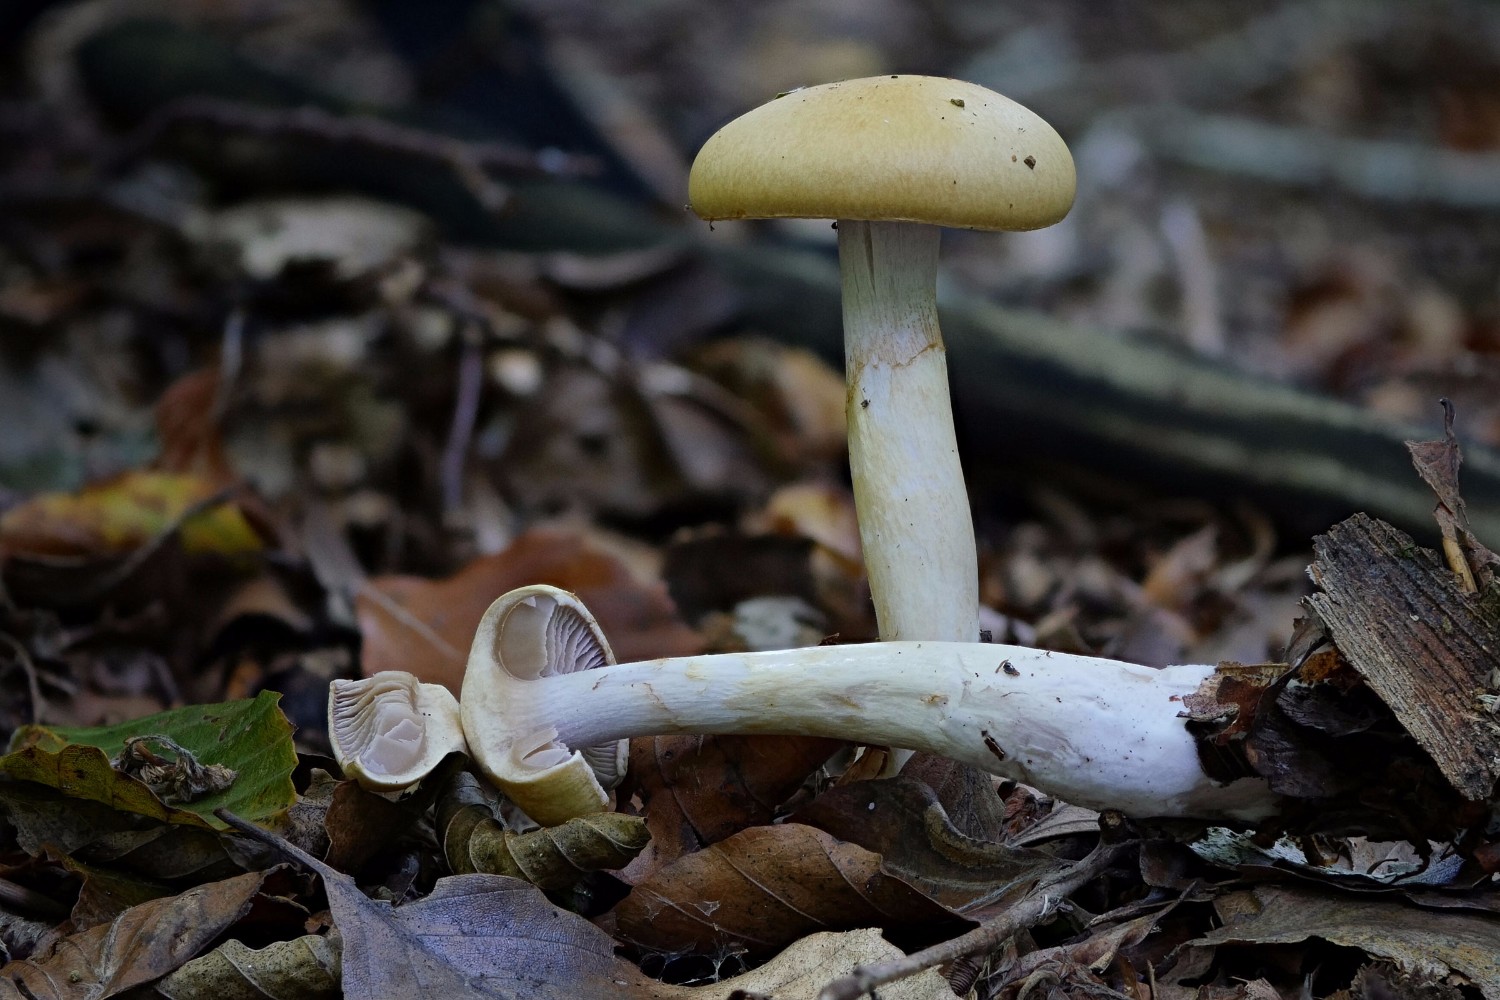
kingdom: Fungi
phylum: Basidiomycota
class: Agaricomycetes
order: Agaricales
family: Cortinariaceae
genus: Cortinarius
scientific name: Cortinarius delibutus
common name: gul slørhat
